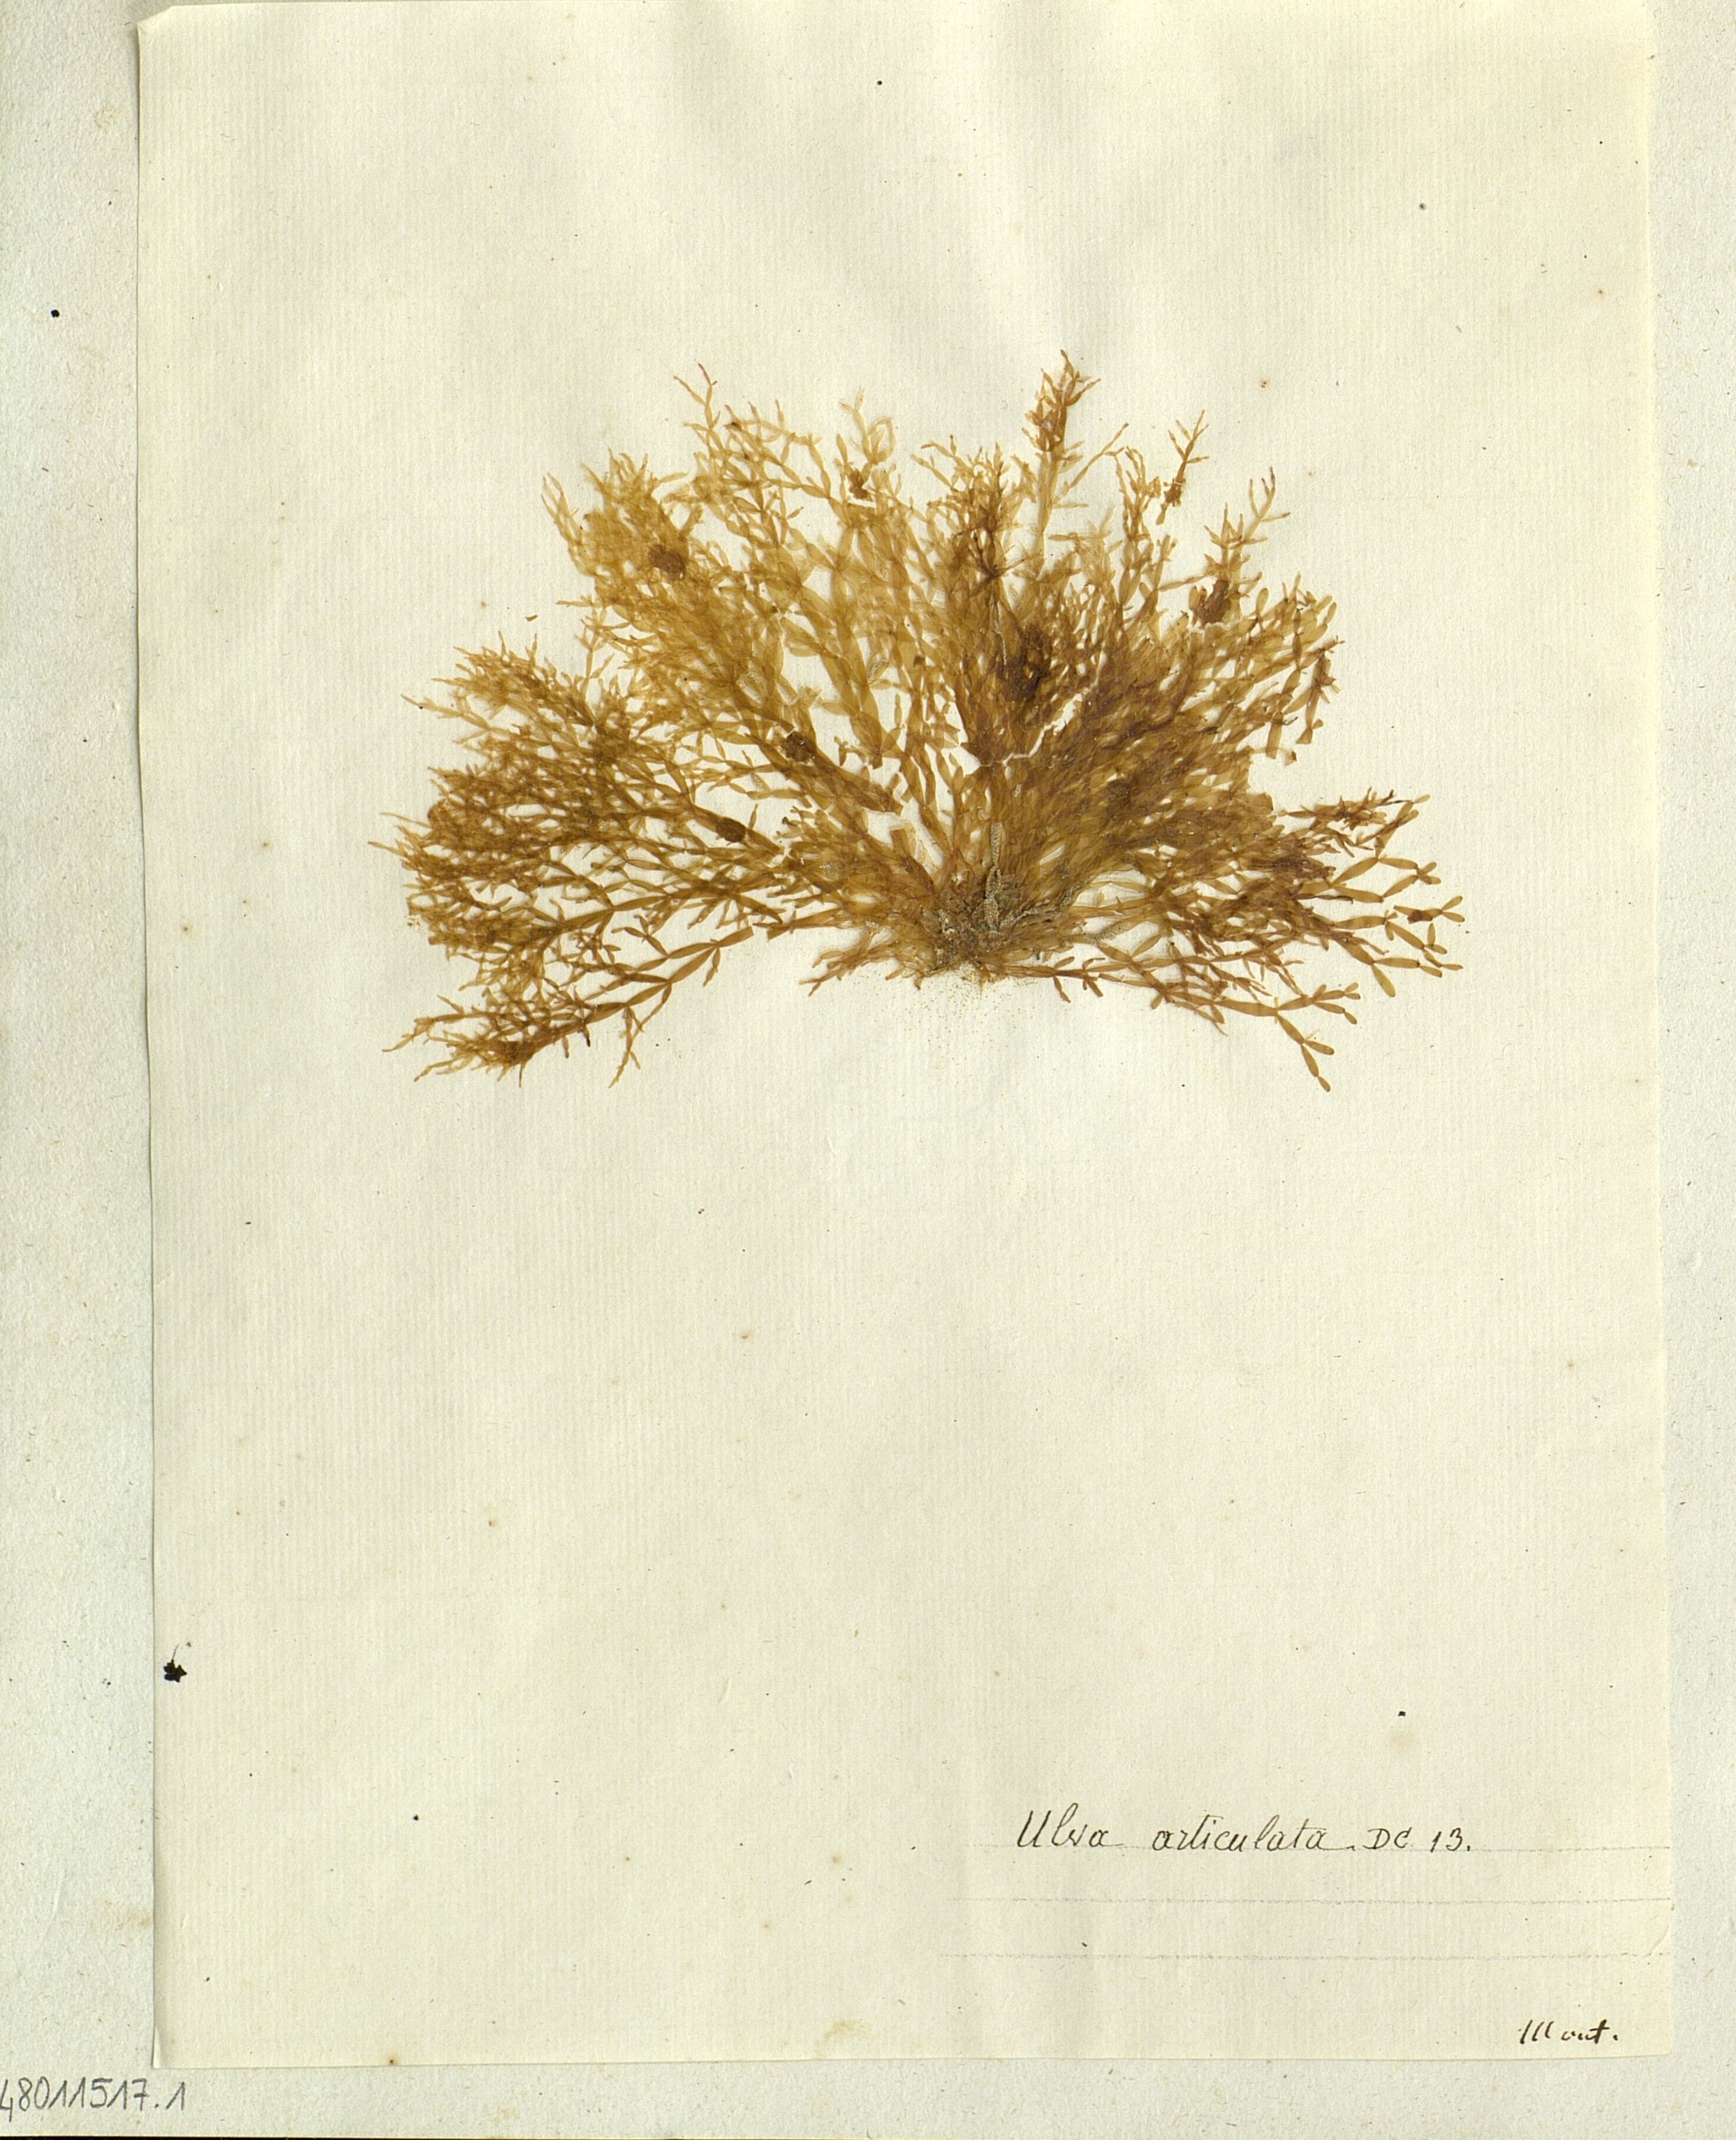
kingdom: Plantae
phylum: Chlorophyta
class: Ulvophyceae
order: Ulvales
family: Ulvaceae
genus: Ulva
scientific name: Ulva
